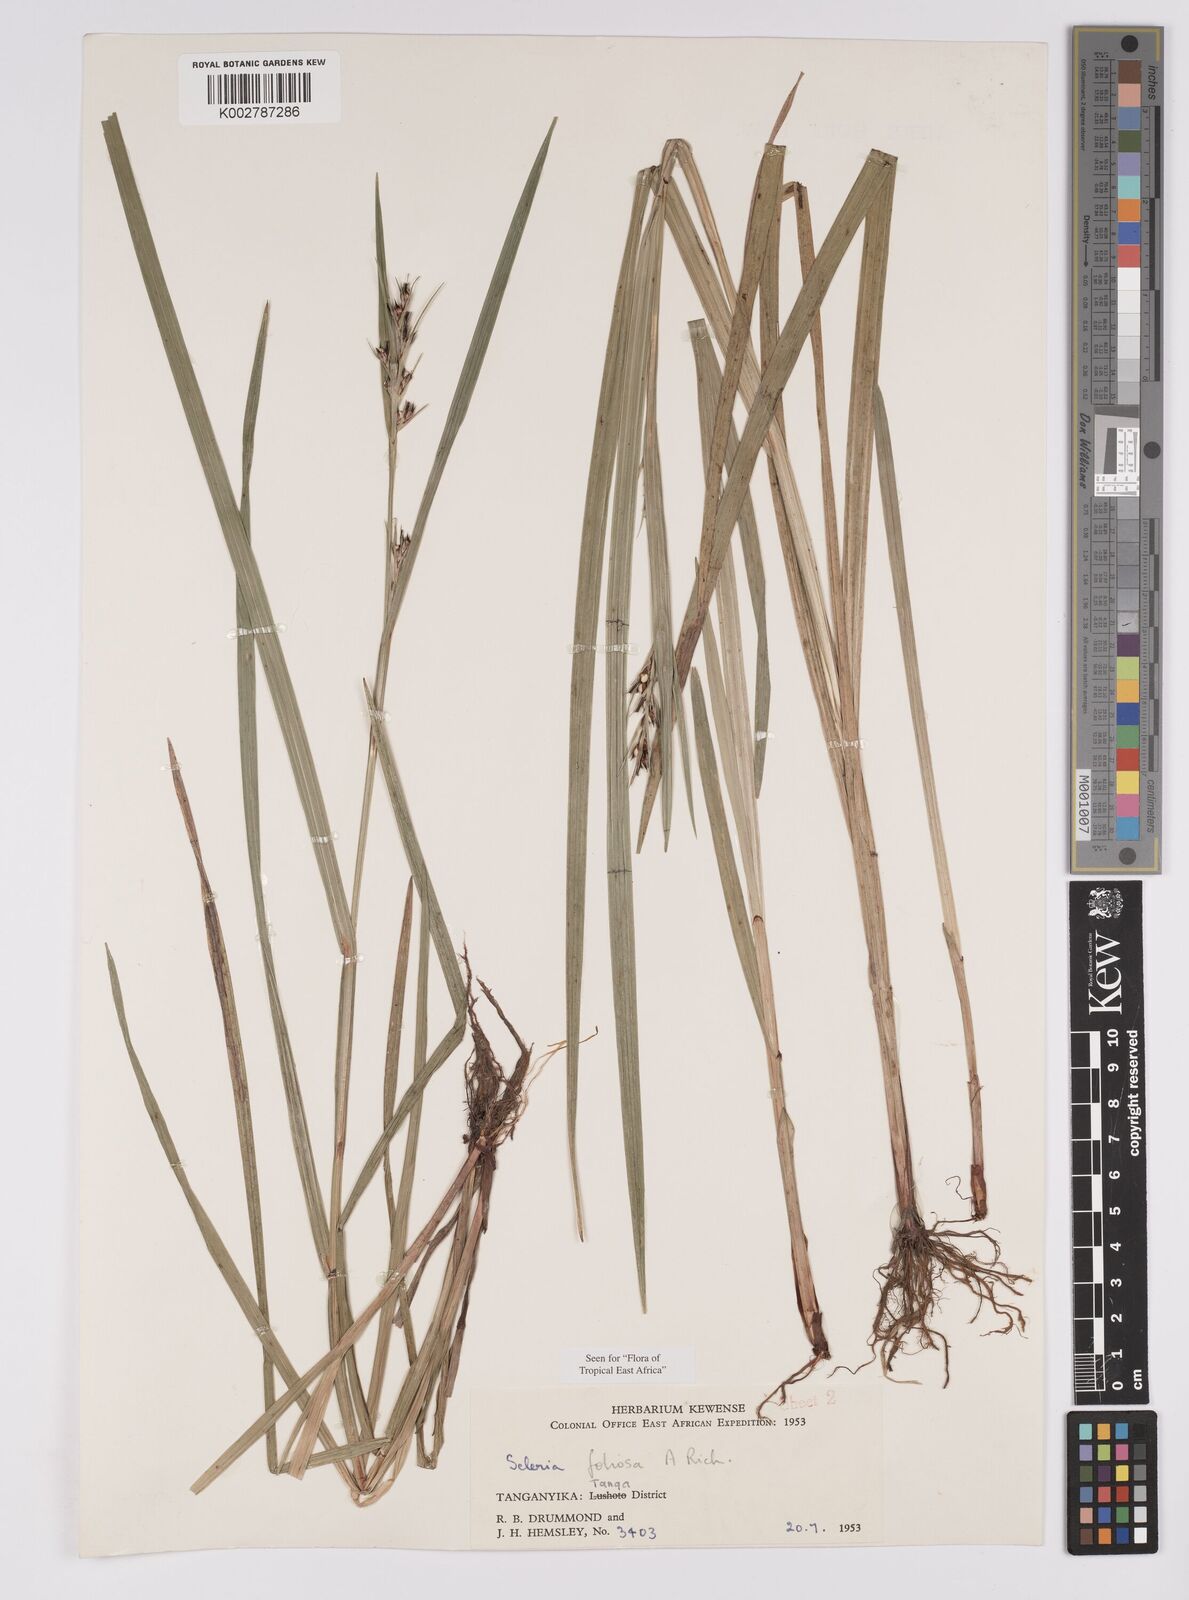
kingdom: Plantae
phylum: Tracheophyta
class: Liliopsida
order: Poales
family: Cyperaceae
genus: Scleria
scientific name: Scleria foliosa
